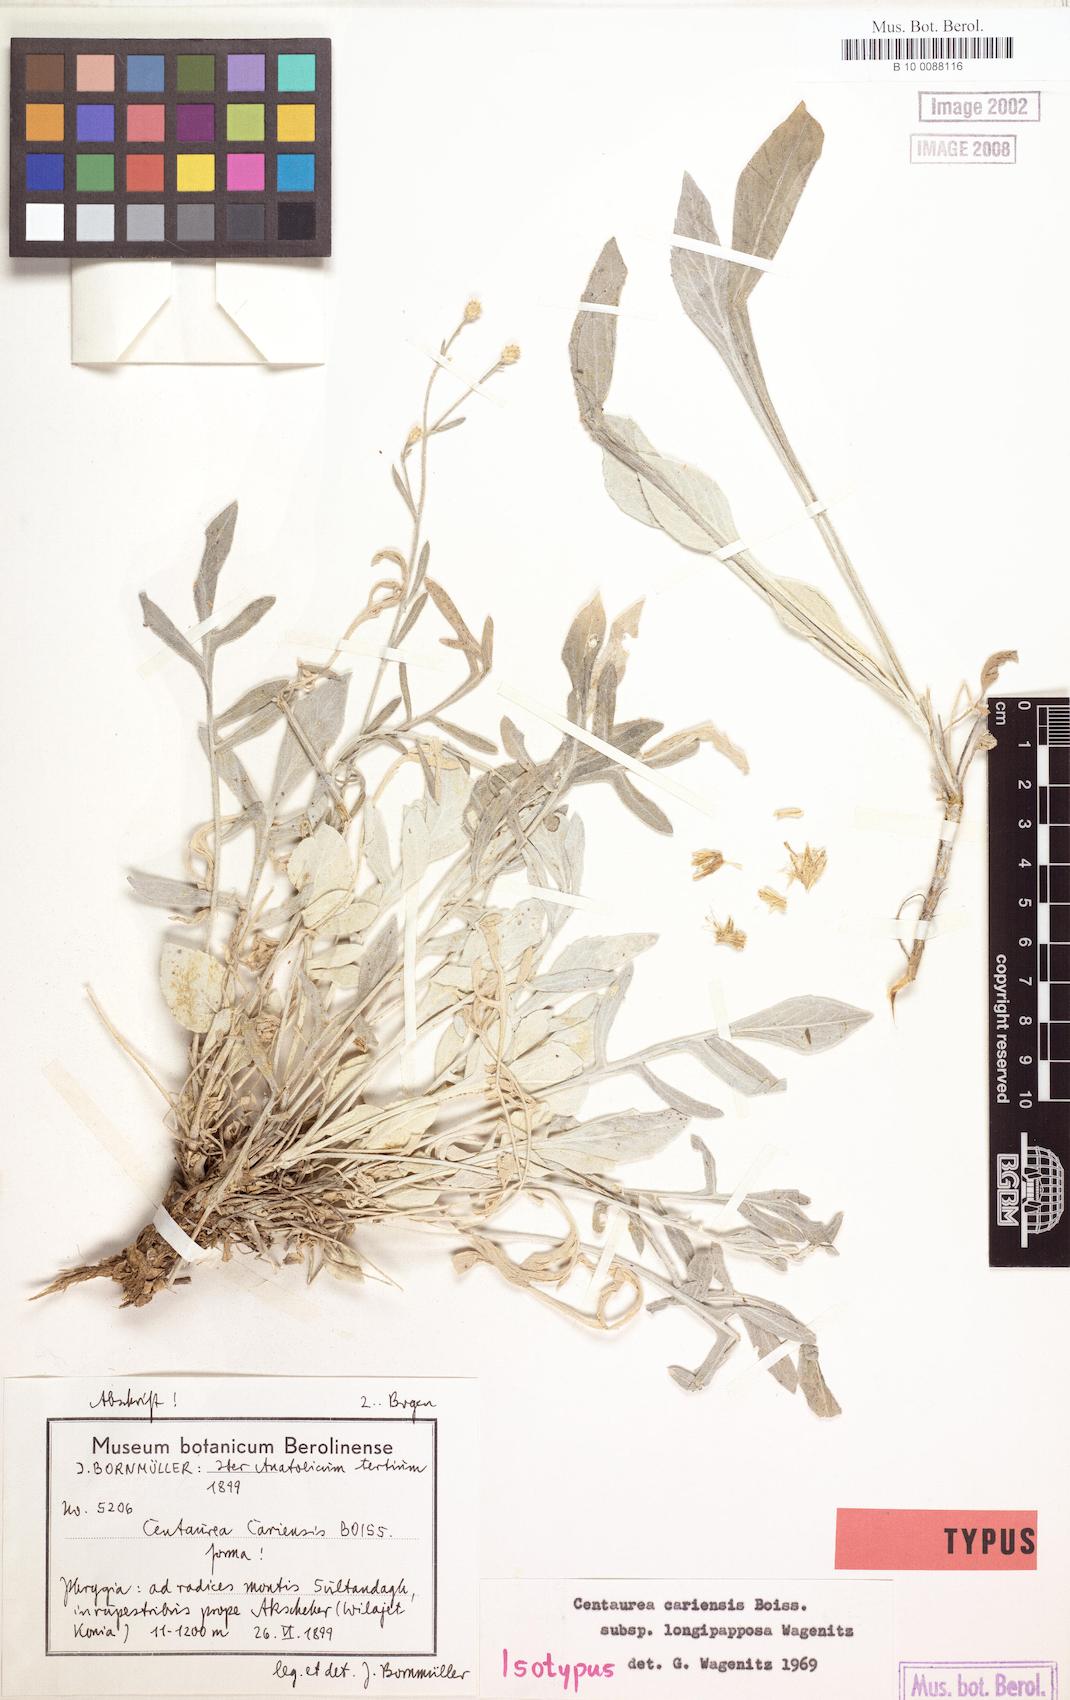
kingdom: Plantae
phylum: Tracheophyta
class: Magnoliopsida
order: Asterales
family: Asteraceae
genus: Centaurea
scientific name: Centaurea cariensis
